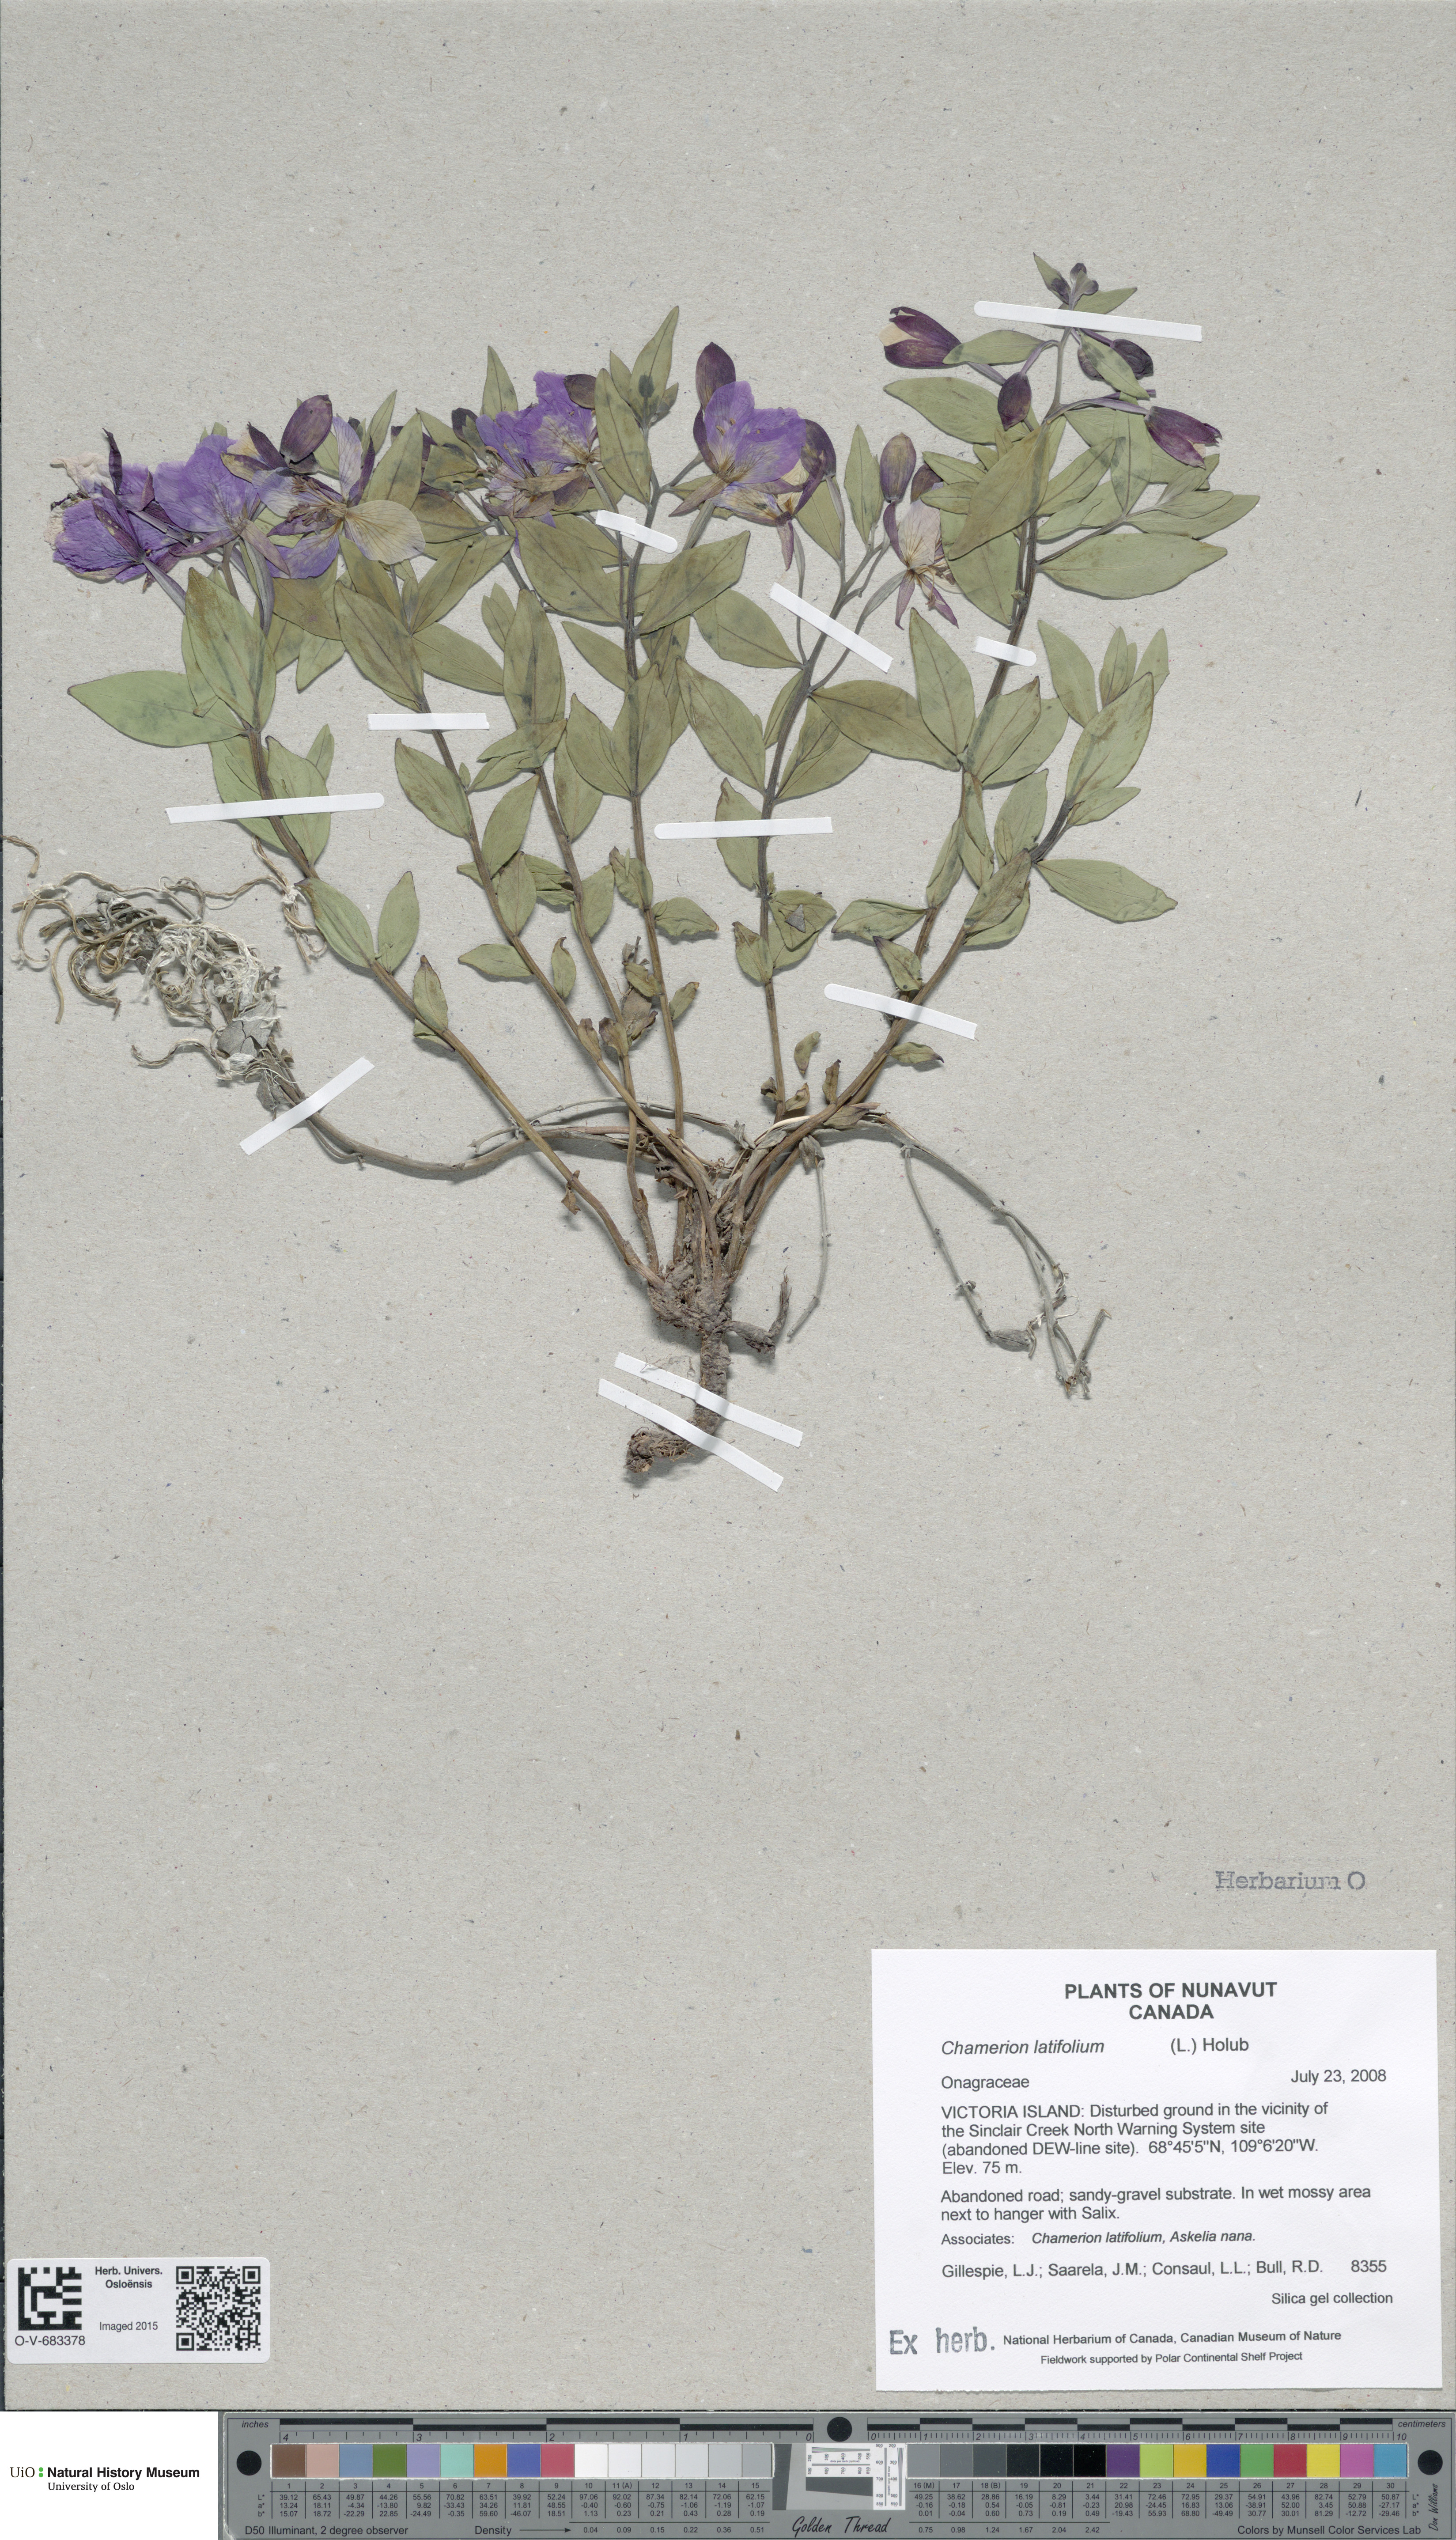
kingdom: Plantae
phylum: Tracheophyta
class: Magnoliopsida
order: Myrtales
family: Onagraceae
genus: Chamaenerion
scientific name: Chamaenerion latifolium
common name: Dwarf fireweed
